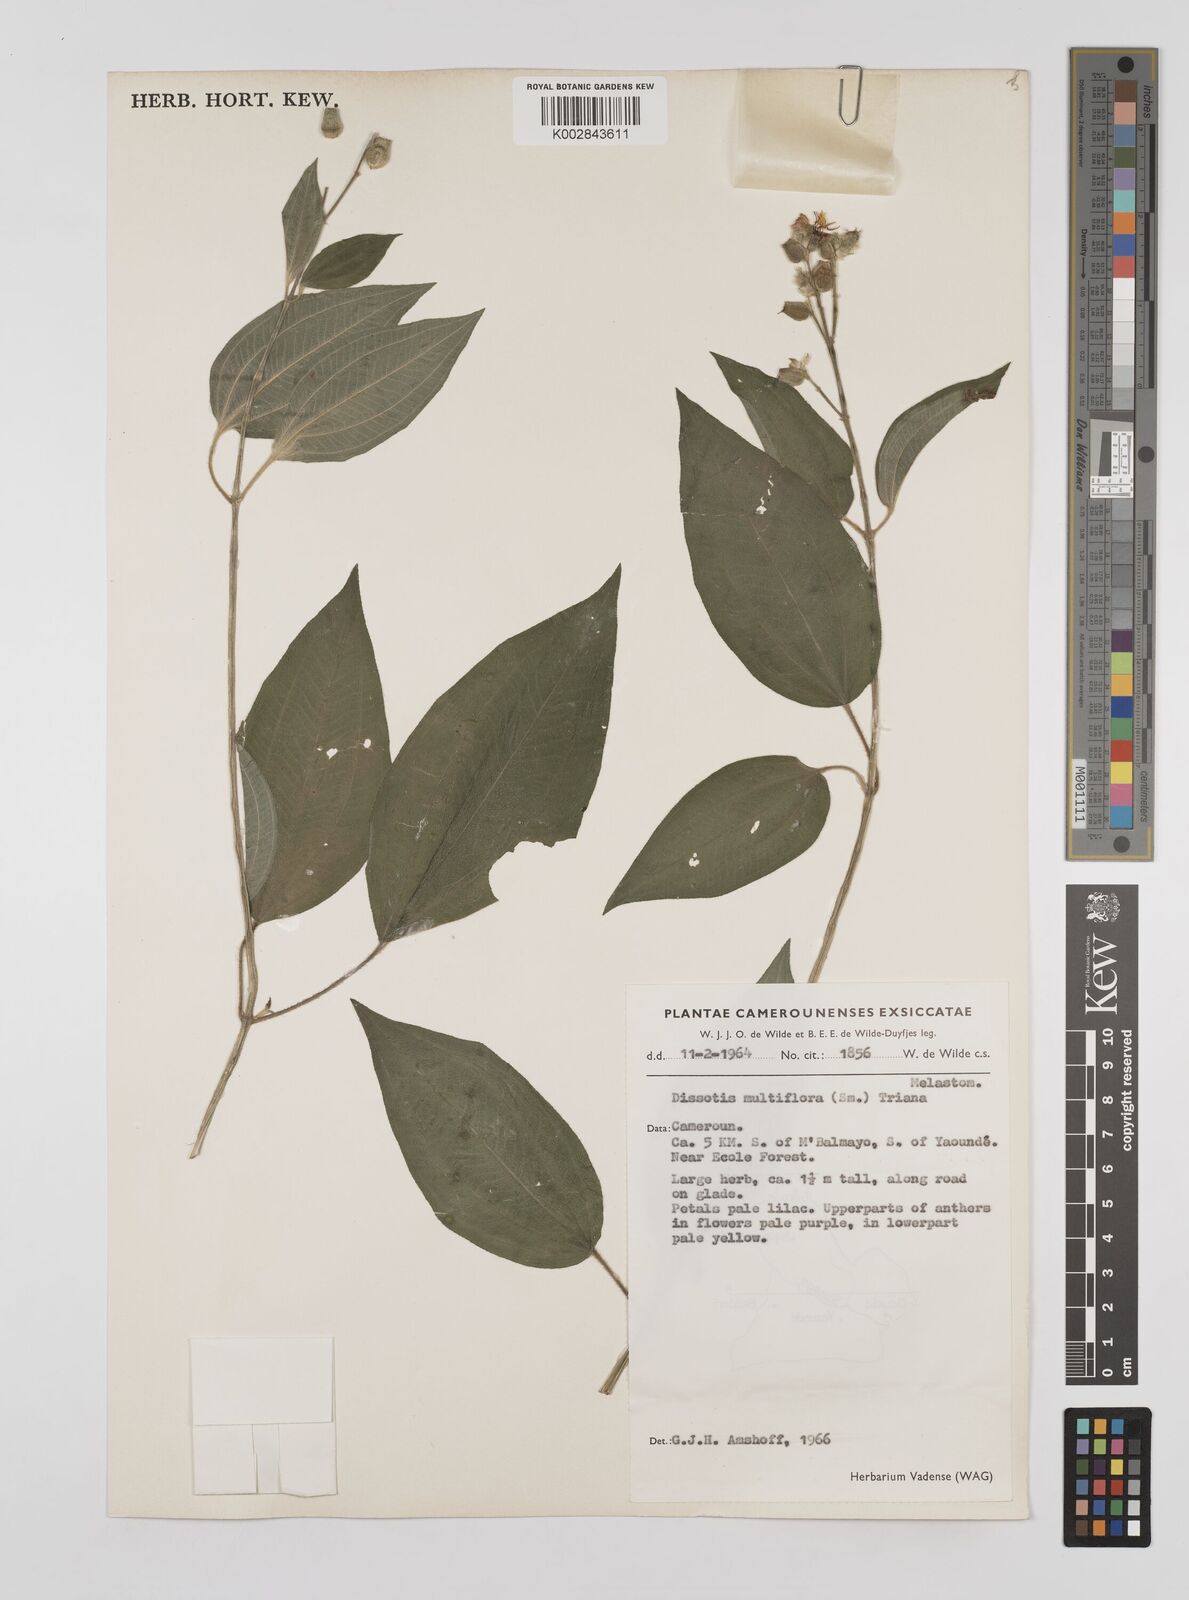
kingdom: Plantae
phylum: Tracheophyta
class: Magnoliopsida
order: Myrtales
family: Melastomataceae
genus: Dupineta
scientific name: Dupineta multiflora
